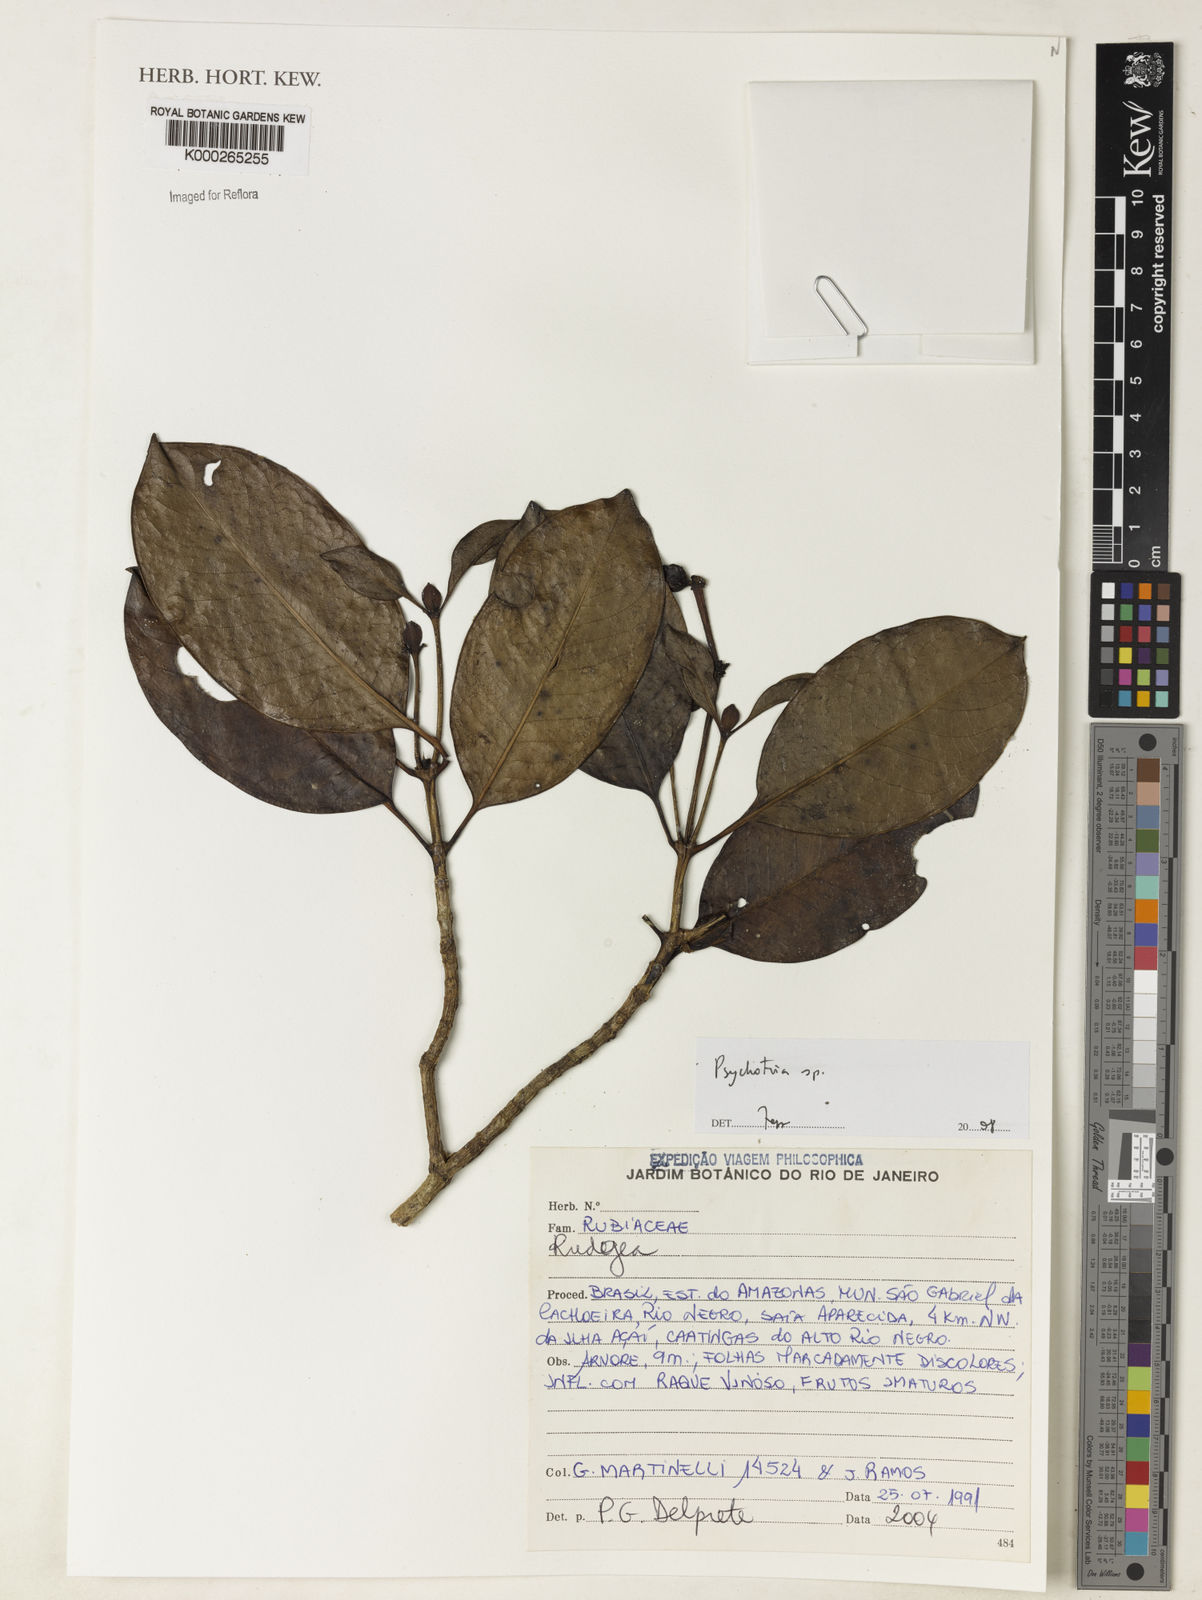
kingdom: Plantae
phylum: Tracheophyta
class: Magnoliopsida
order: Gentianales
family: Rubiaceae
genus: Psychotria
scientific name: Psychotria
